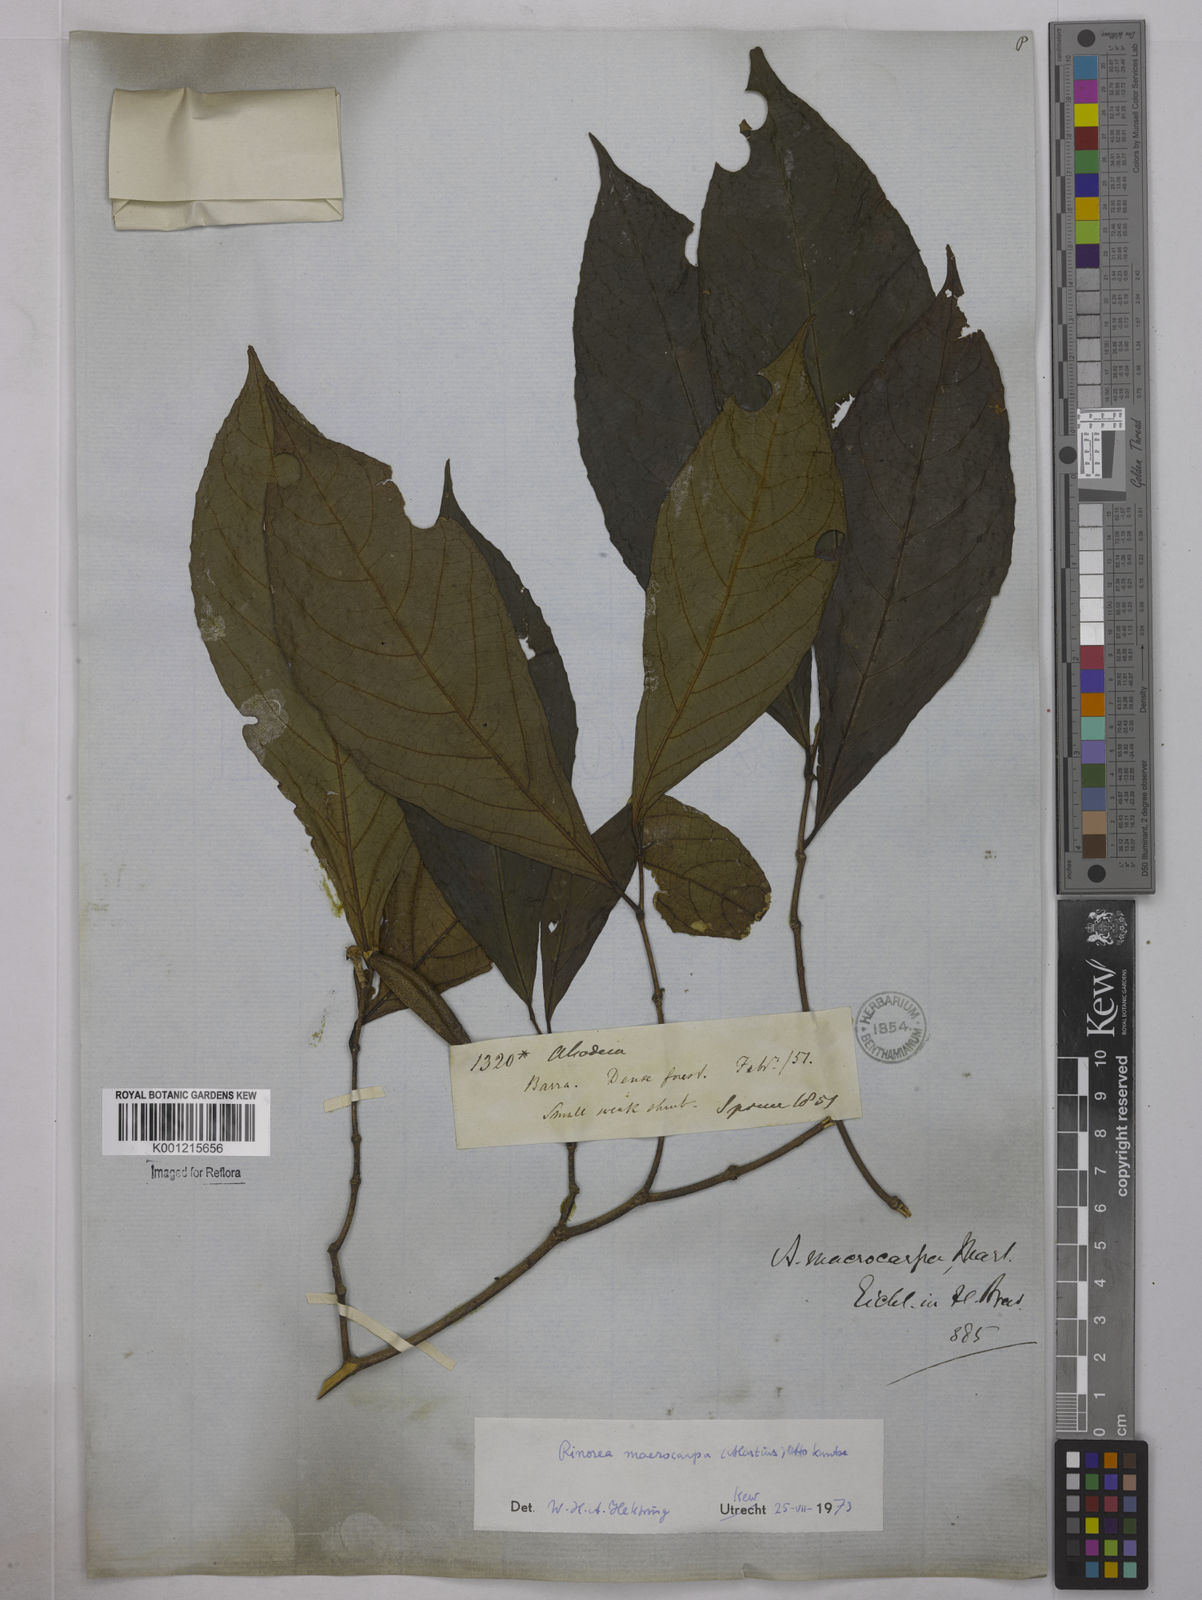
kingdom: Plantae
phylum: Tracheophyta
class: Magnoliopsida
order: Malpighiales
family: Violaceae
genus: Rinorea
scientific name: Rinorea macrocarpa
